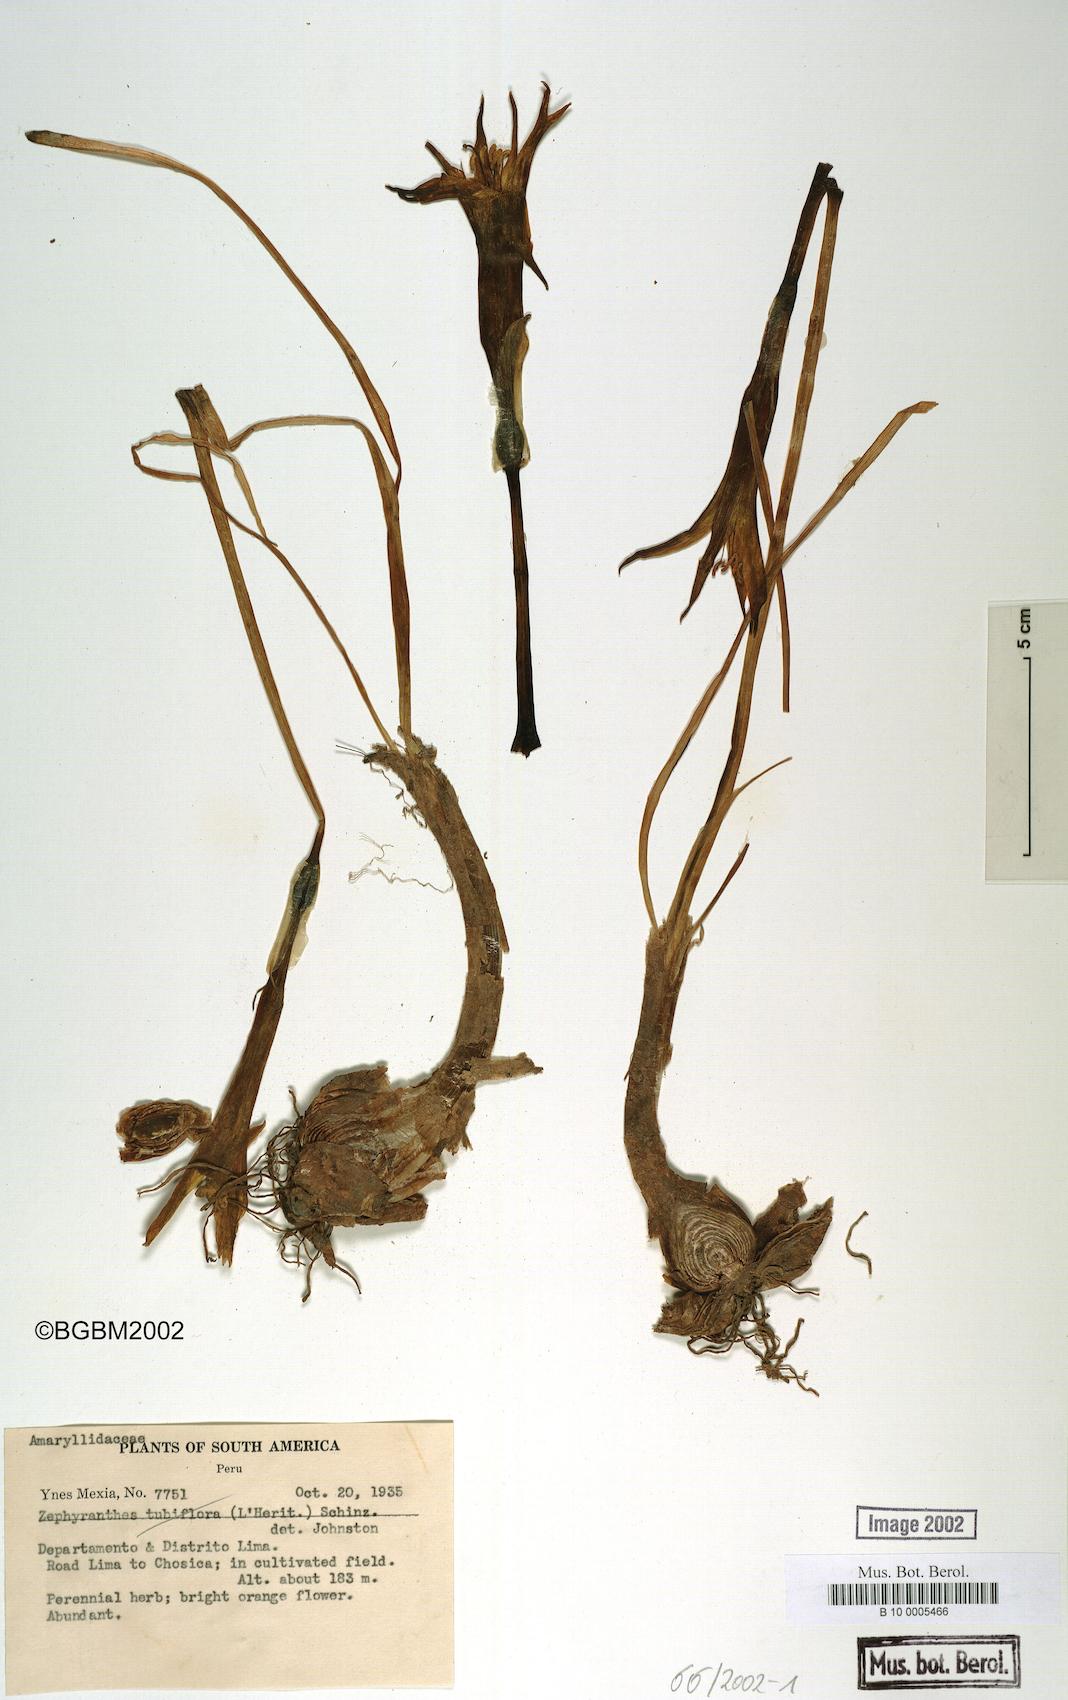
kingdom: Plantae
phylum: Tracheophyta
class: Liliopsida
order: Asparagales
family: Amaryllidaceae
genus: Pyrolirion
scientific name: Pyrolirion tubiflorum
